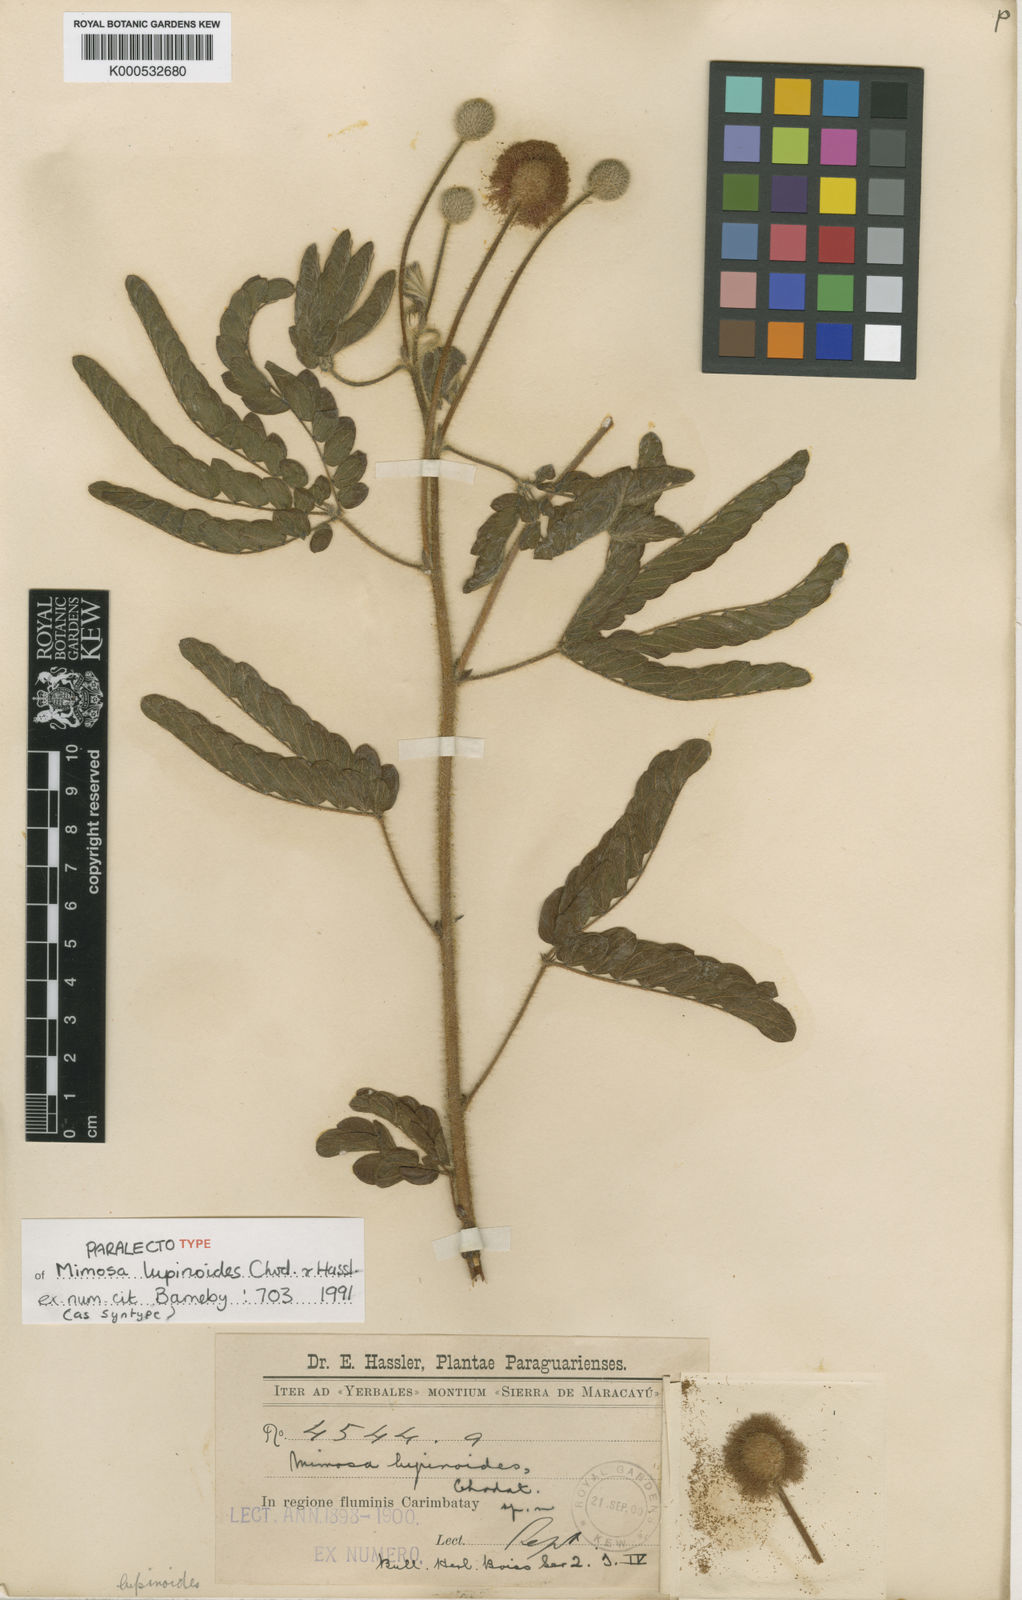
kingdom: Plantae
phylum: Tracheophyta
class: Magnoliopsida
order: Fabales
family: Fabaceae
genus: Mimosa
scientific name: Mimosa lupinoides
